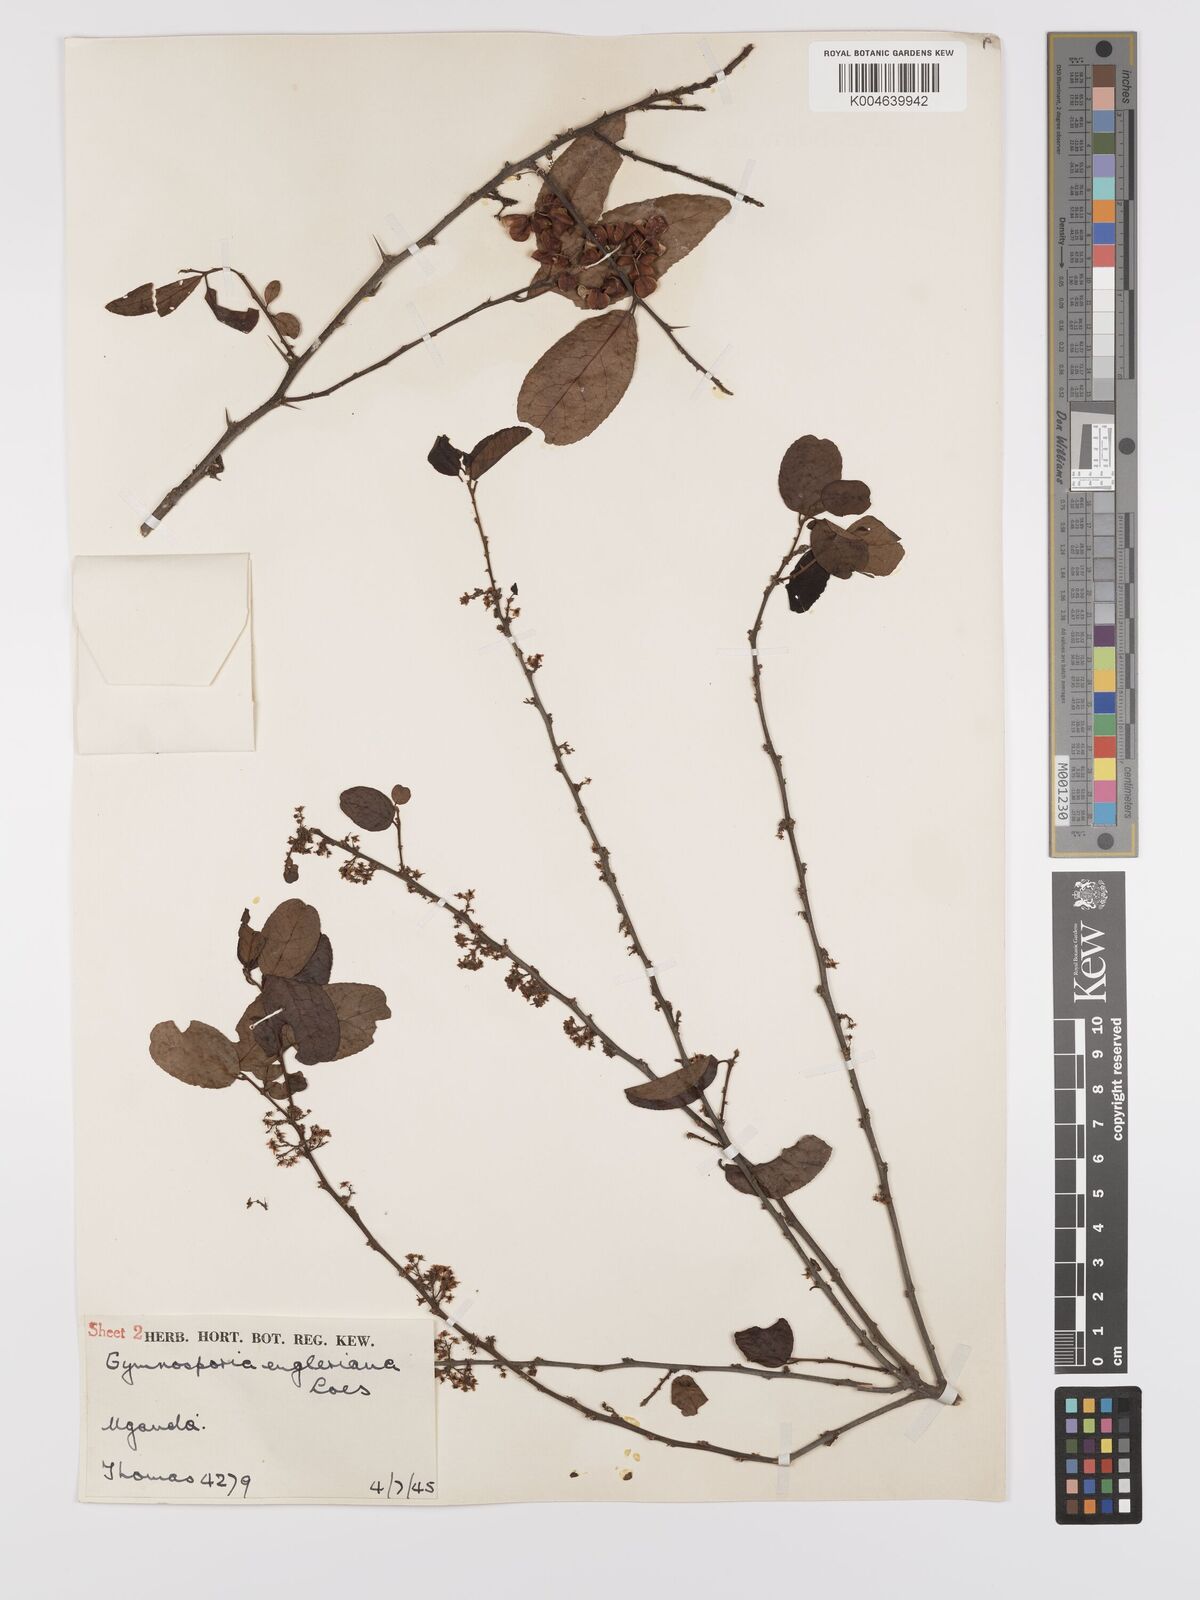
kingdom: Plantae
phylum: Tracheophyta
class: Magnoliopsida
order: Celastrales
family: Celastraceae
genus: Gymnosporia
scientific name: Gymnosporia
